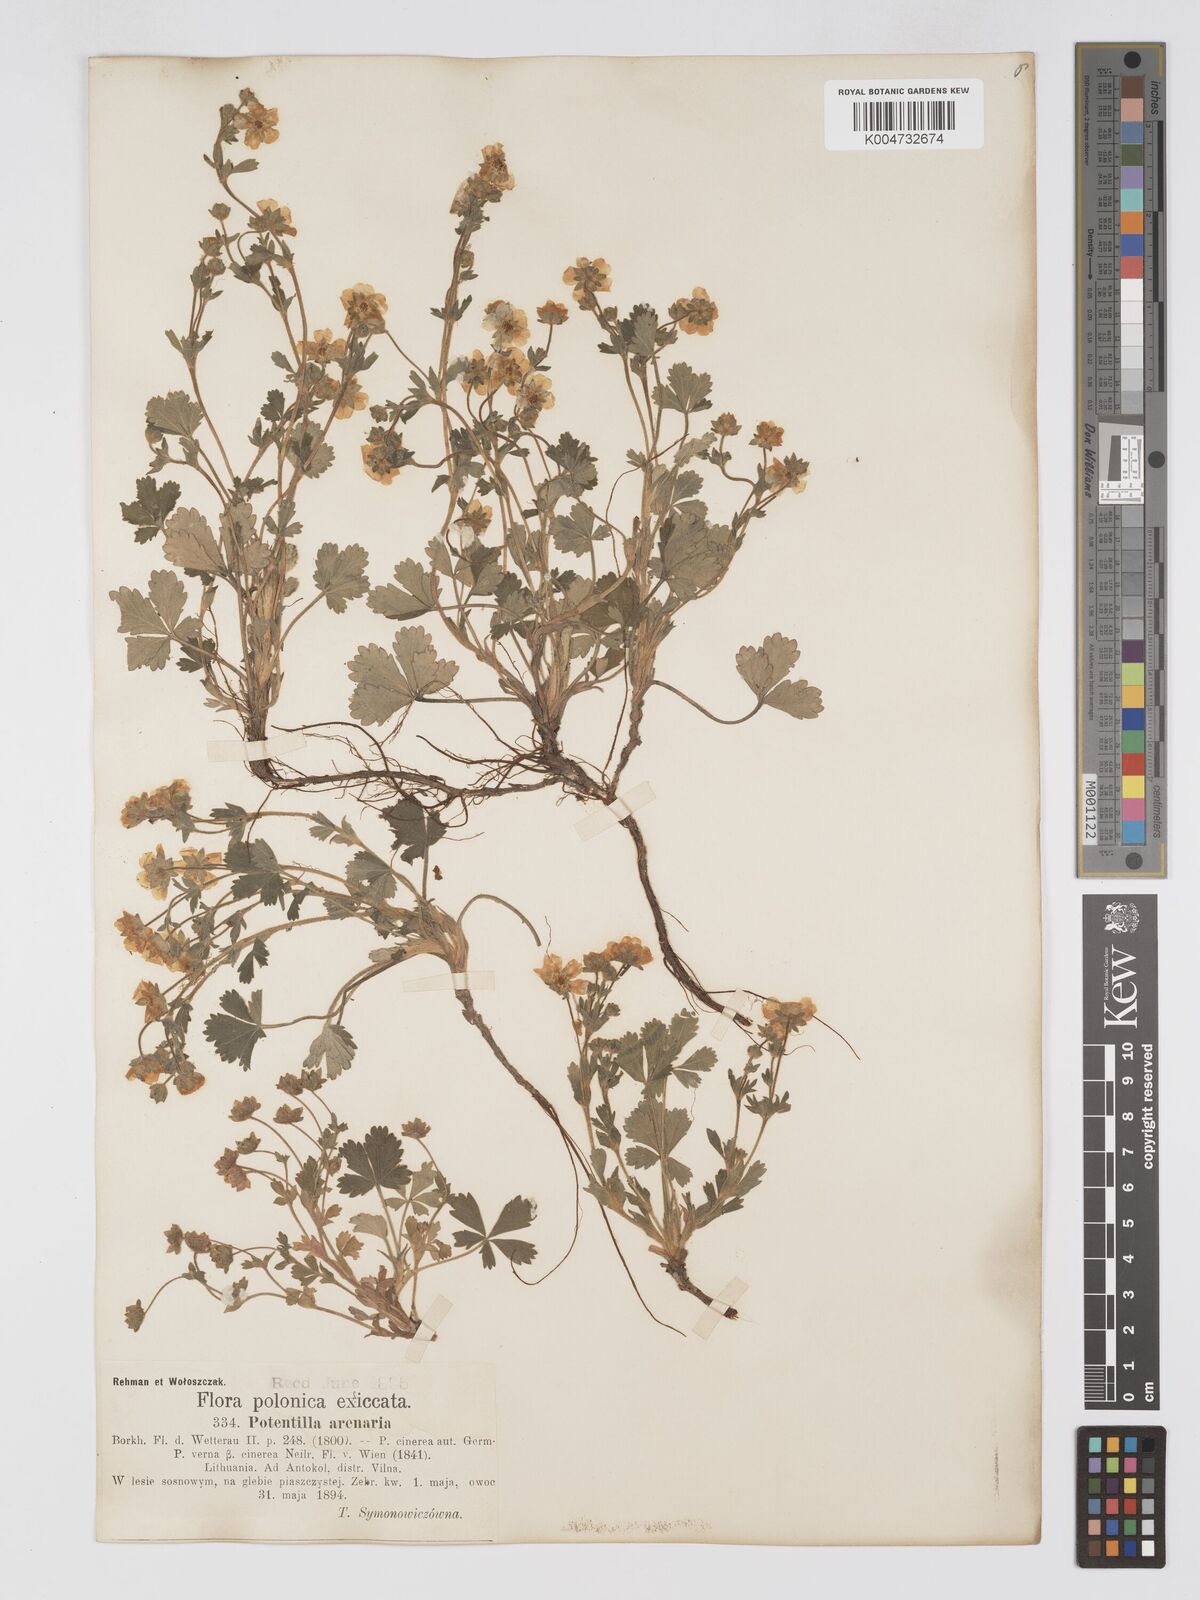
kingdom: Plantae
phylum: Tracheophyta
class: Magnoliopsida
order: Rosales
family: Rosaceae
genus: Potentilla
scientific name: Potentilla cinerea
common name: Ashy cinquefoil
